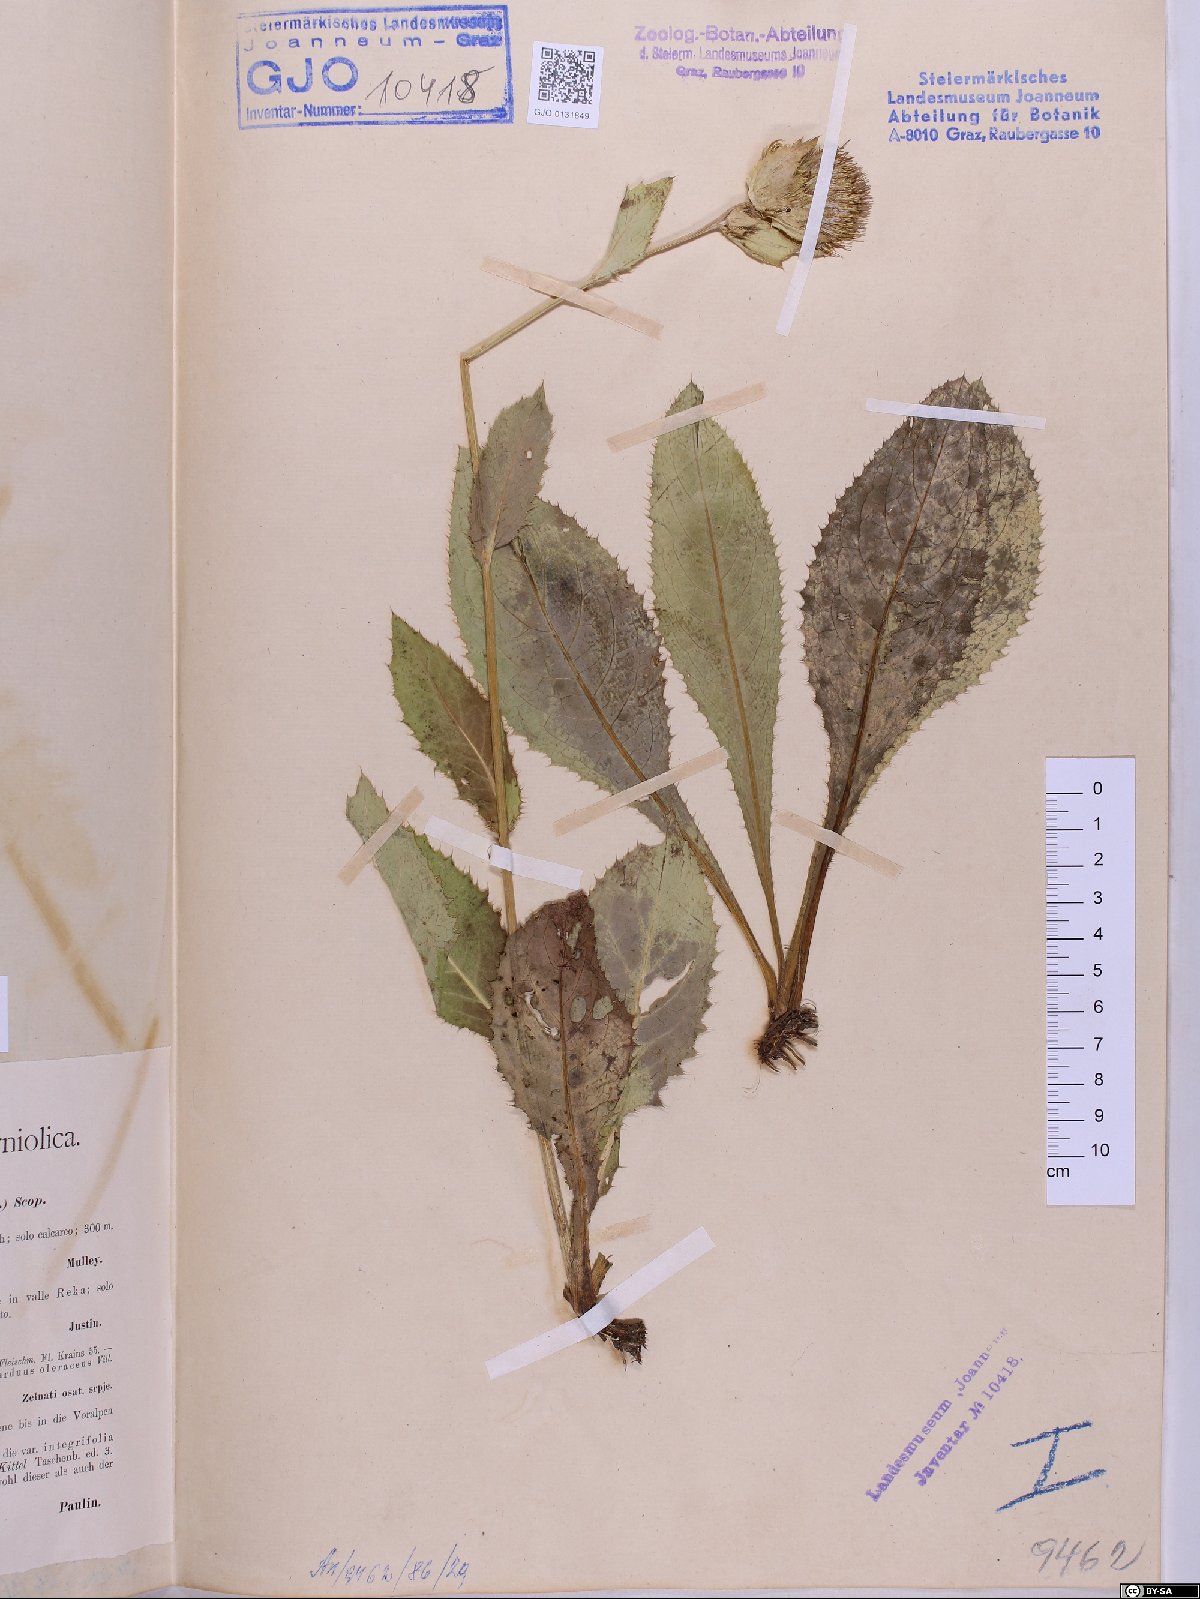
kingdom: Plantae
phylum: Tracheophyta
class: Magnoliopsida
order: Asterales
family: Asteraceae
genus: Cirsium
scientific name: Cirsium oleraceum
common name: Cabbage thistle
